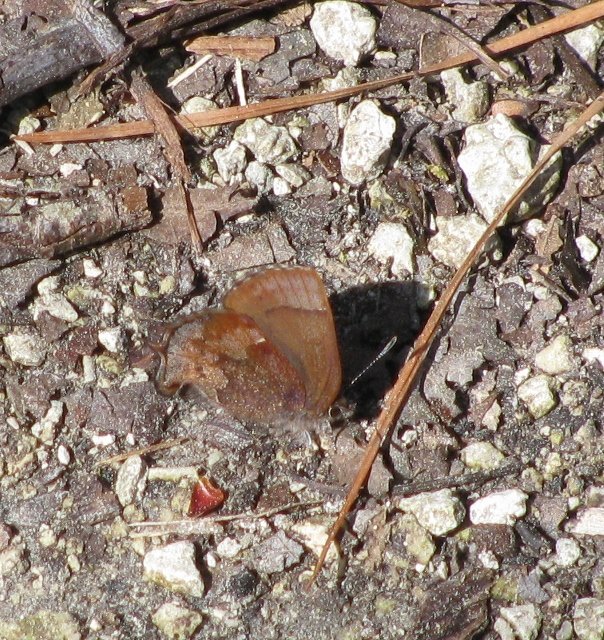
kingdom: Animalia
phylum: Arthropoda
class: Insecta
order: Lepidoptera
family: Lycaenidae
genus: Incisalia
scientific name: Incisalia henrici
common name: Henry's Elfin
